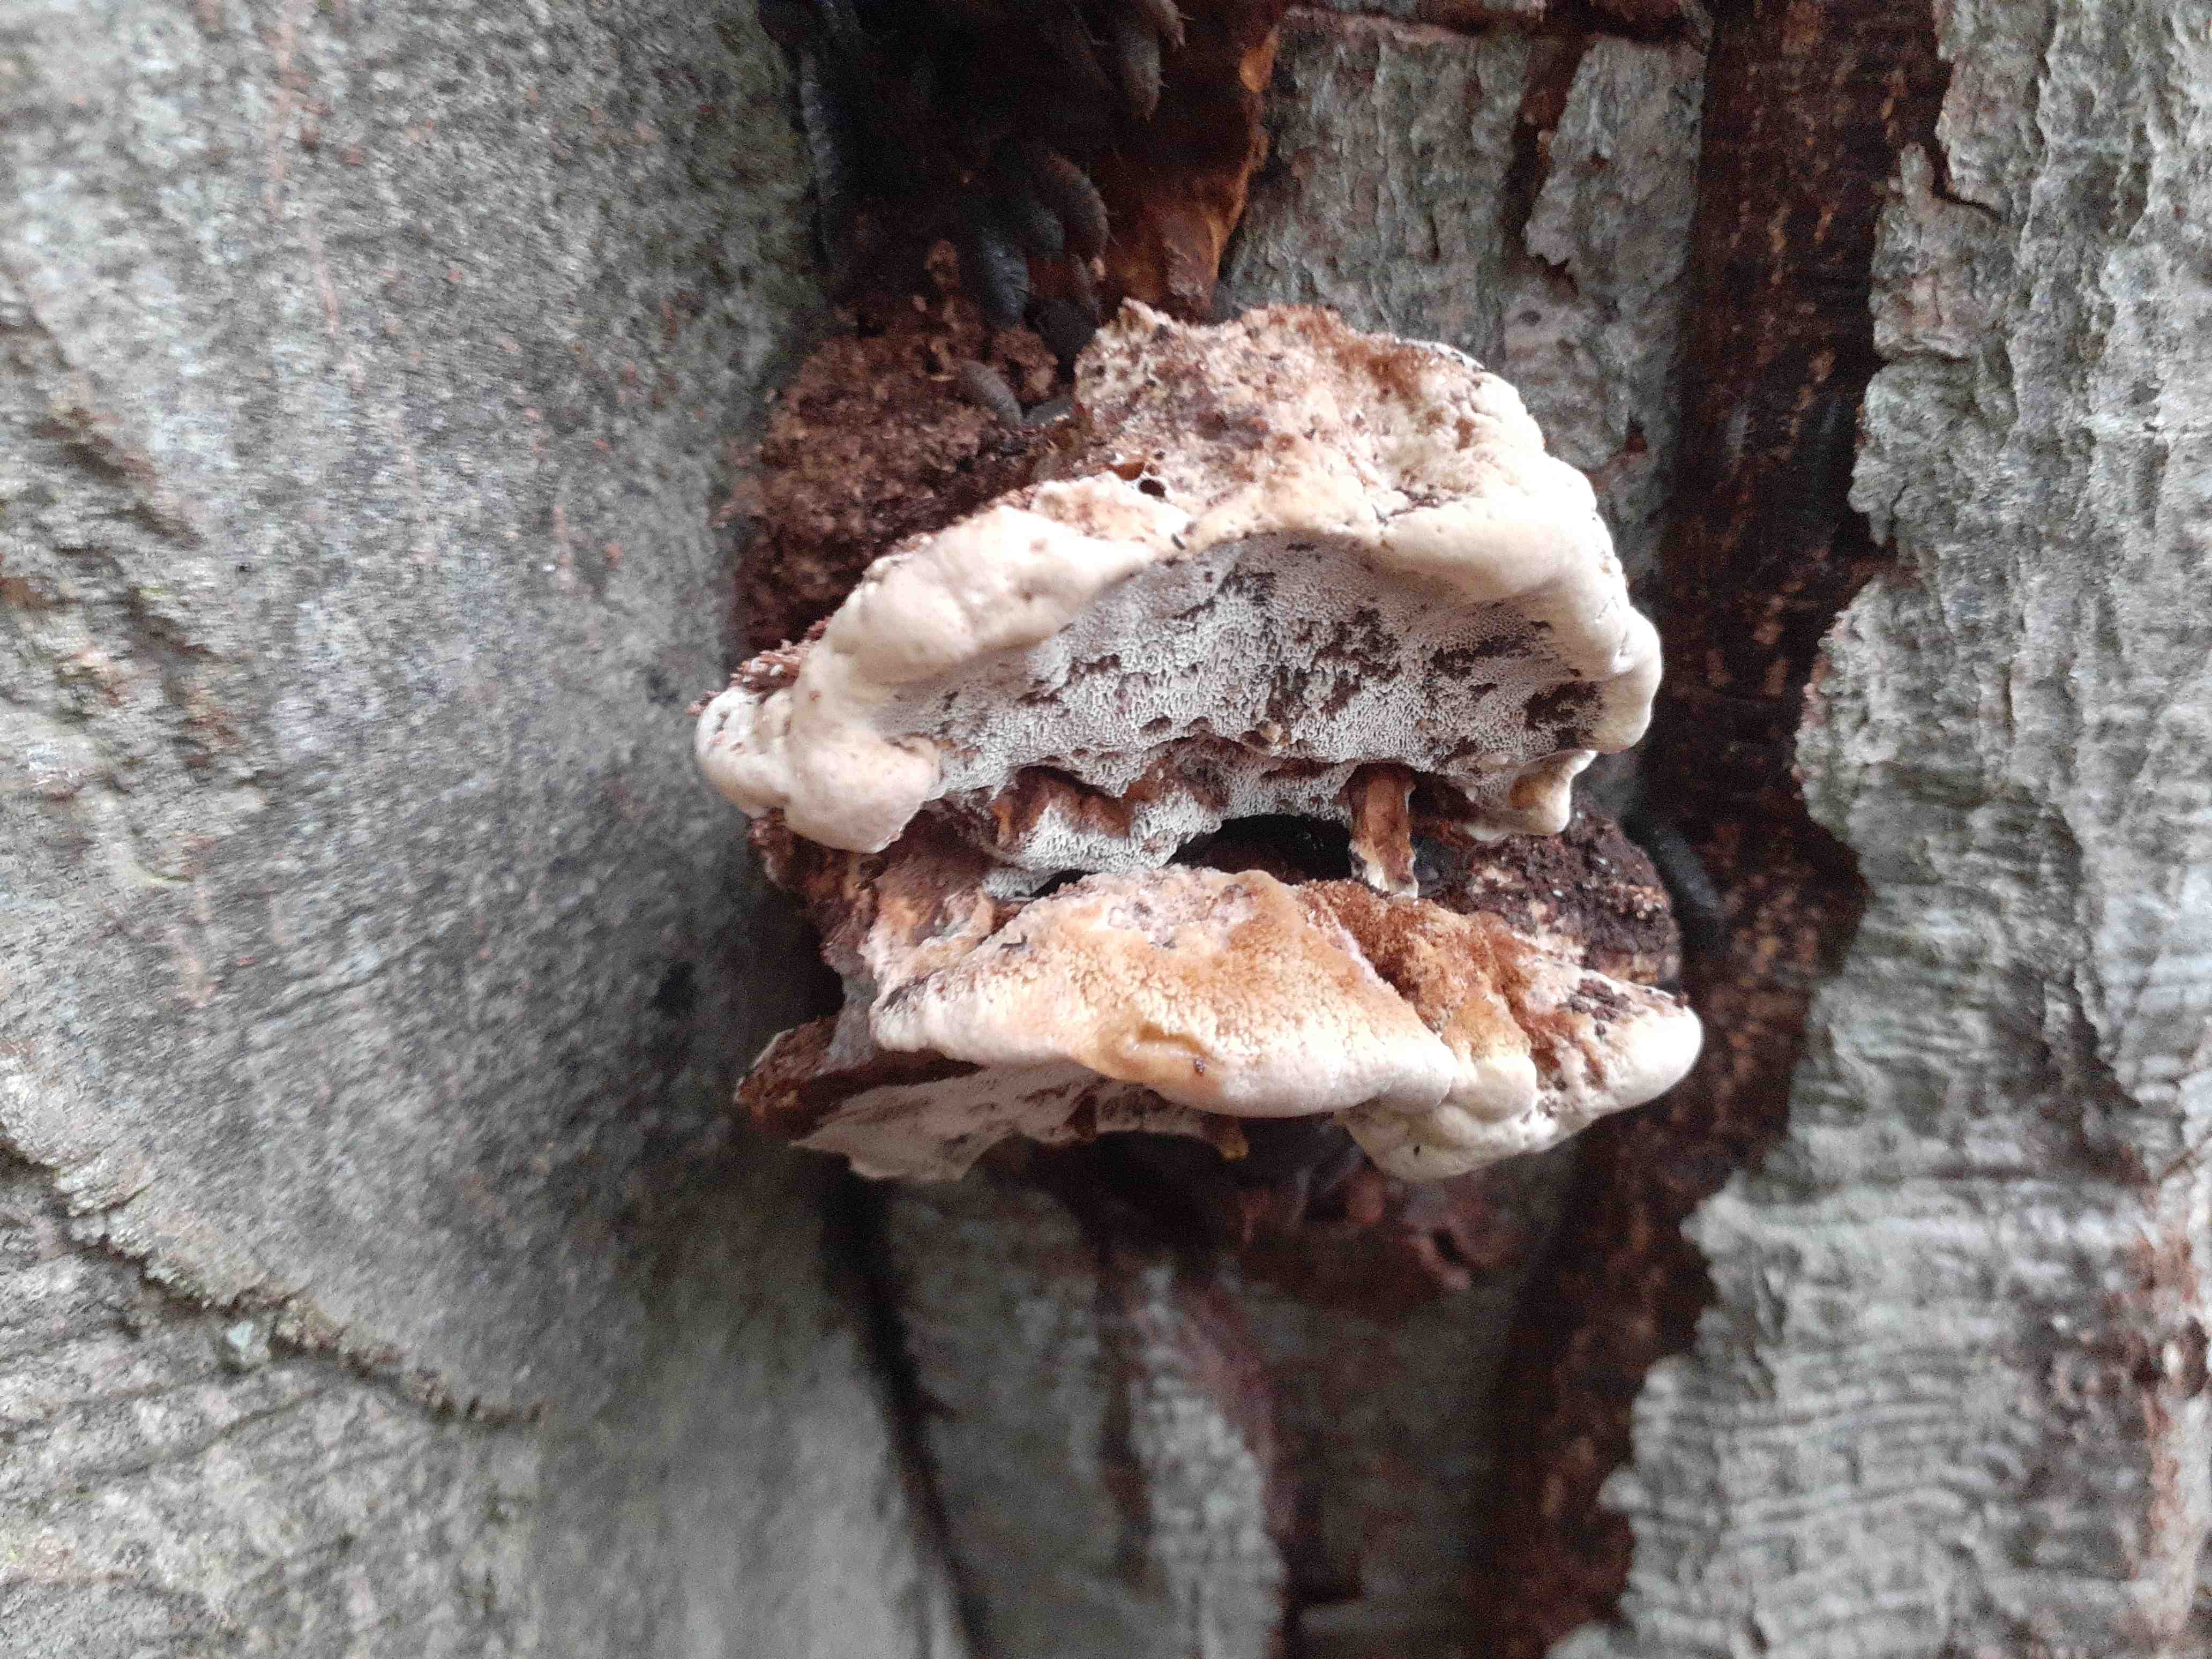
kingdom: Fungi
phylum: Basidiomycota
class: Agaricomycetes
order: Hymenochaetales
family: Hymenochaetaceae
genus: Inonotus
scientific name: Inonotus cuticularis
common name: kroghåret spejlporesvamp
